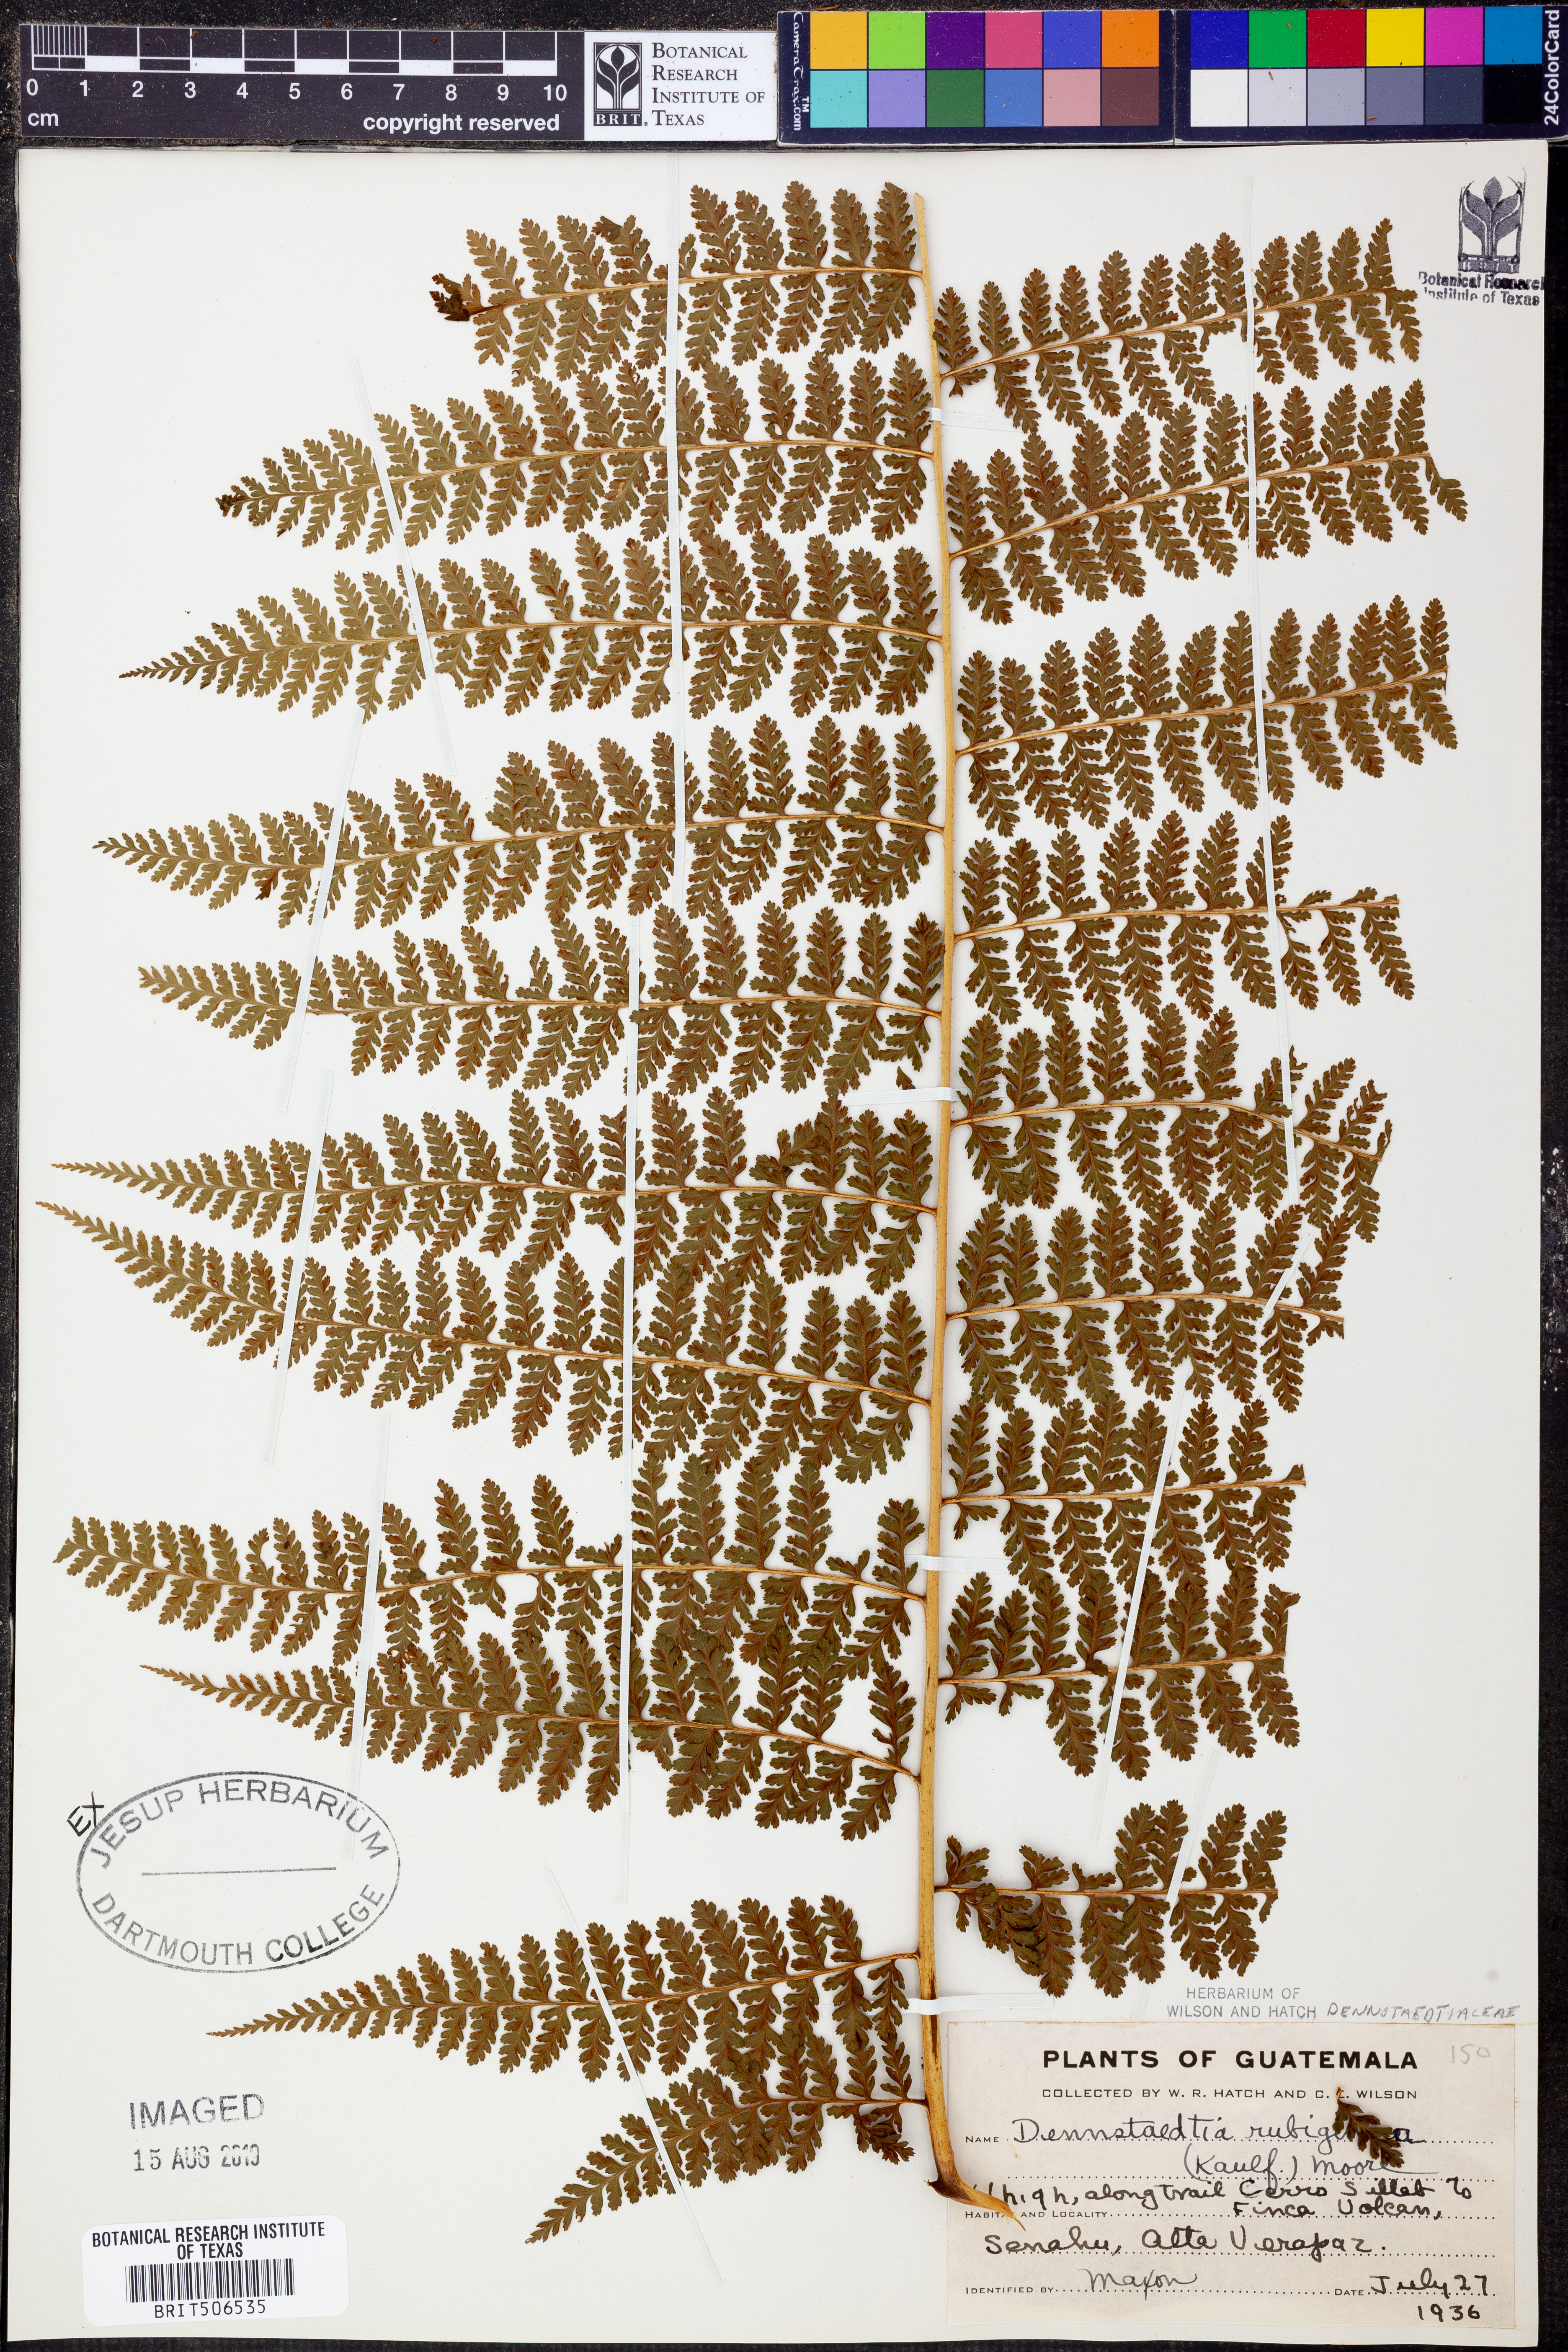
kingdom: Plantae
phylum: Tracheophyta
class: Polypodiopsida
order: Polypodiales
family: Dennstaedtiaceae
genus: Dennstaedtia
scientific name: Dennstaedtia cicutaria
